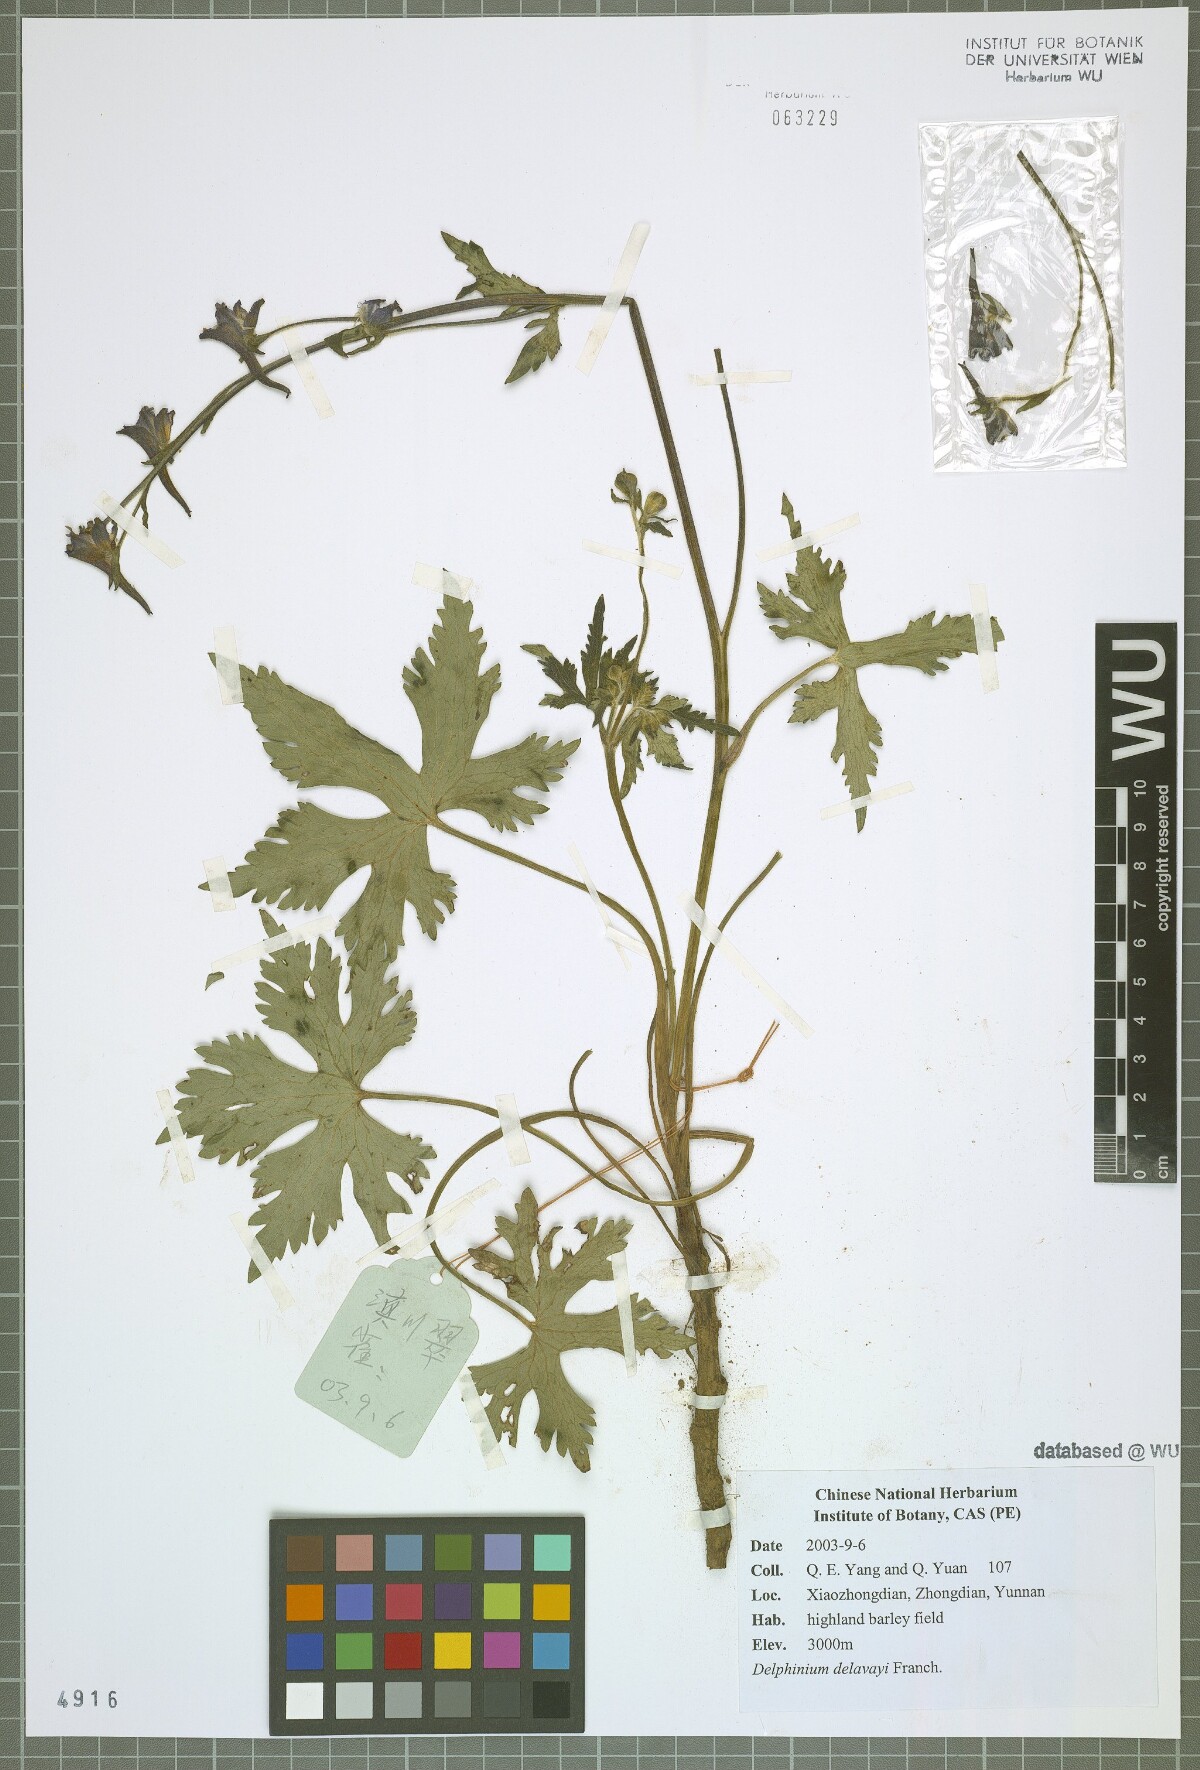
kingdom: Plantae
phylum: Tracheophyta
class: Magnoliopsida
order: Ranunculales
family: Ranunculaceae
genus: Delphinium
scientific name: Delphinium delavayi
